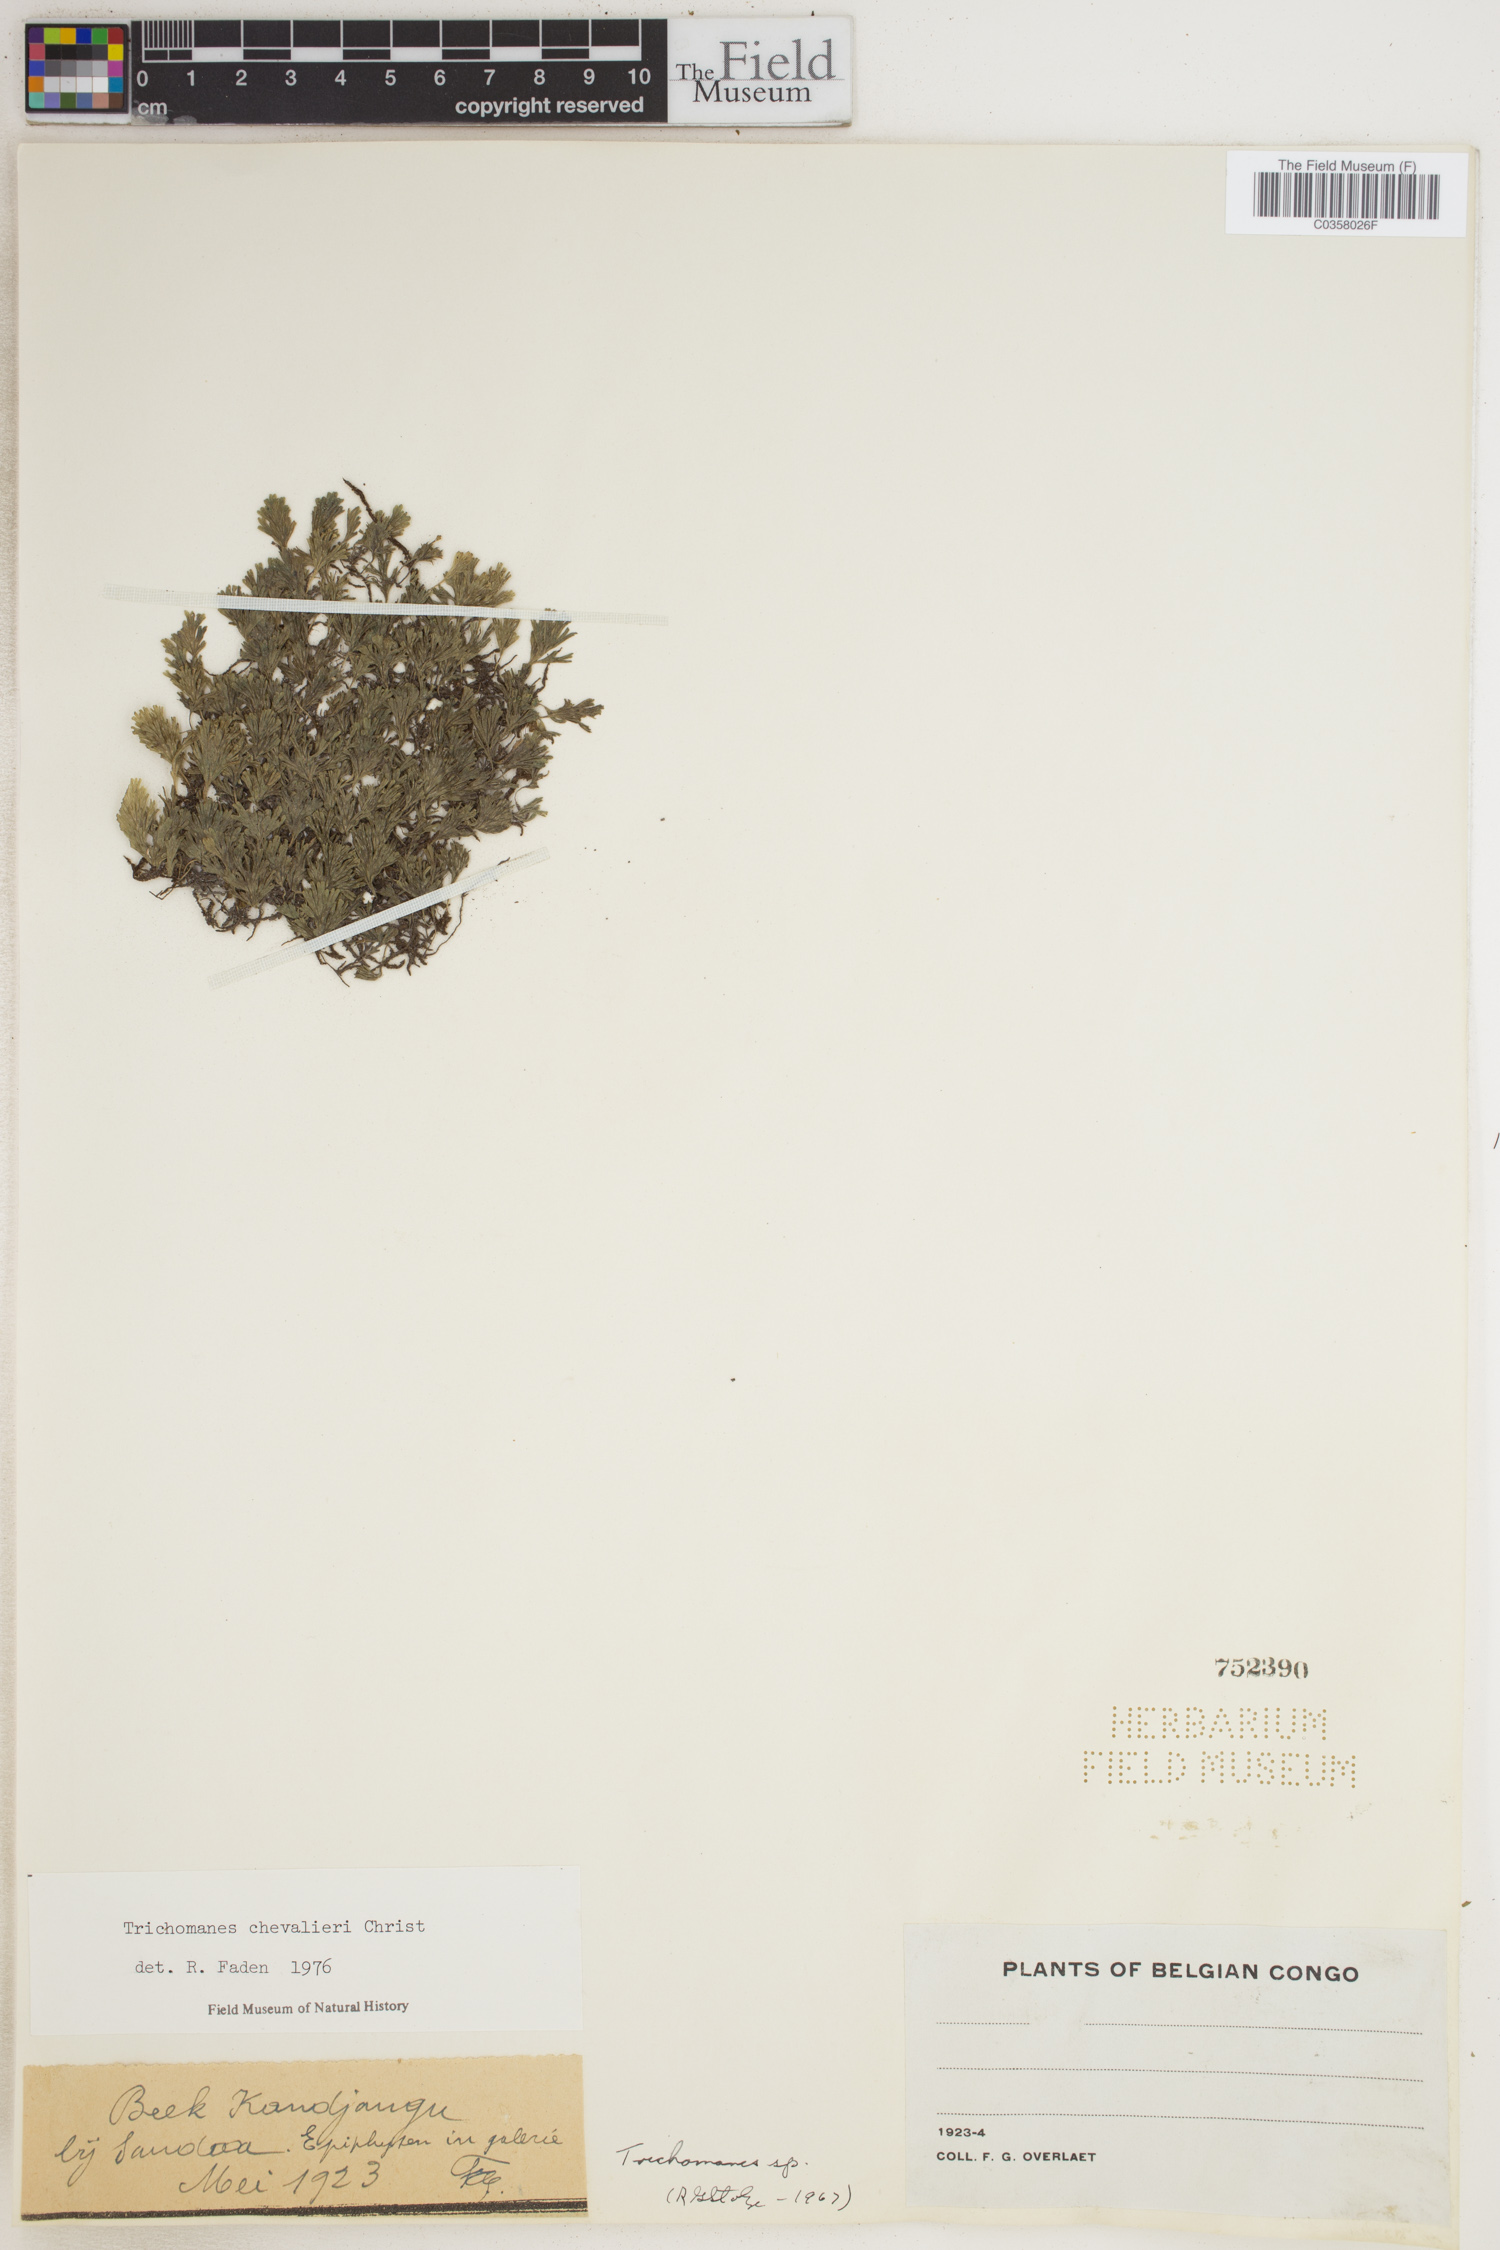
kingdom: Plantae
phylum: Tracheophyta
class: Polypodiopsida
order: Hymenophyllales
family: Hymenophyllaceae
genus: Crepidomanes
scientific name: Crepidomanes chevalieri
